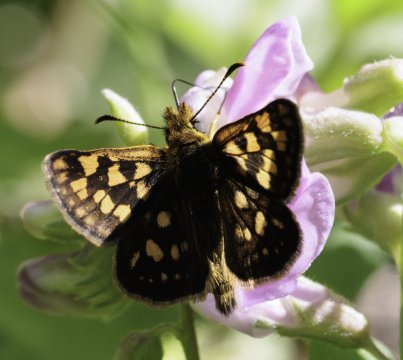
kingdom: Animalia
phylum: Arthropoda
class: Insecta
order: Lepidoptera
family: Hesperiidae
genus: Carterocephalus
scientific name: Carterocephalus palaemon
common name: Chequered Skipper
